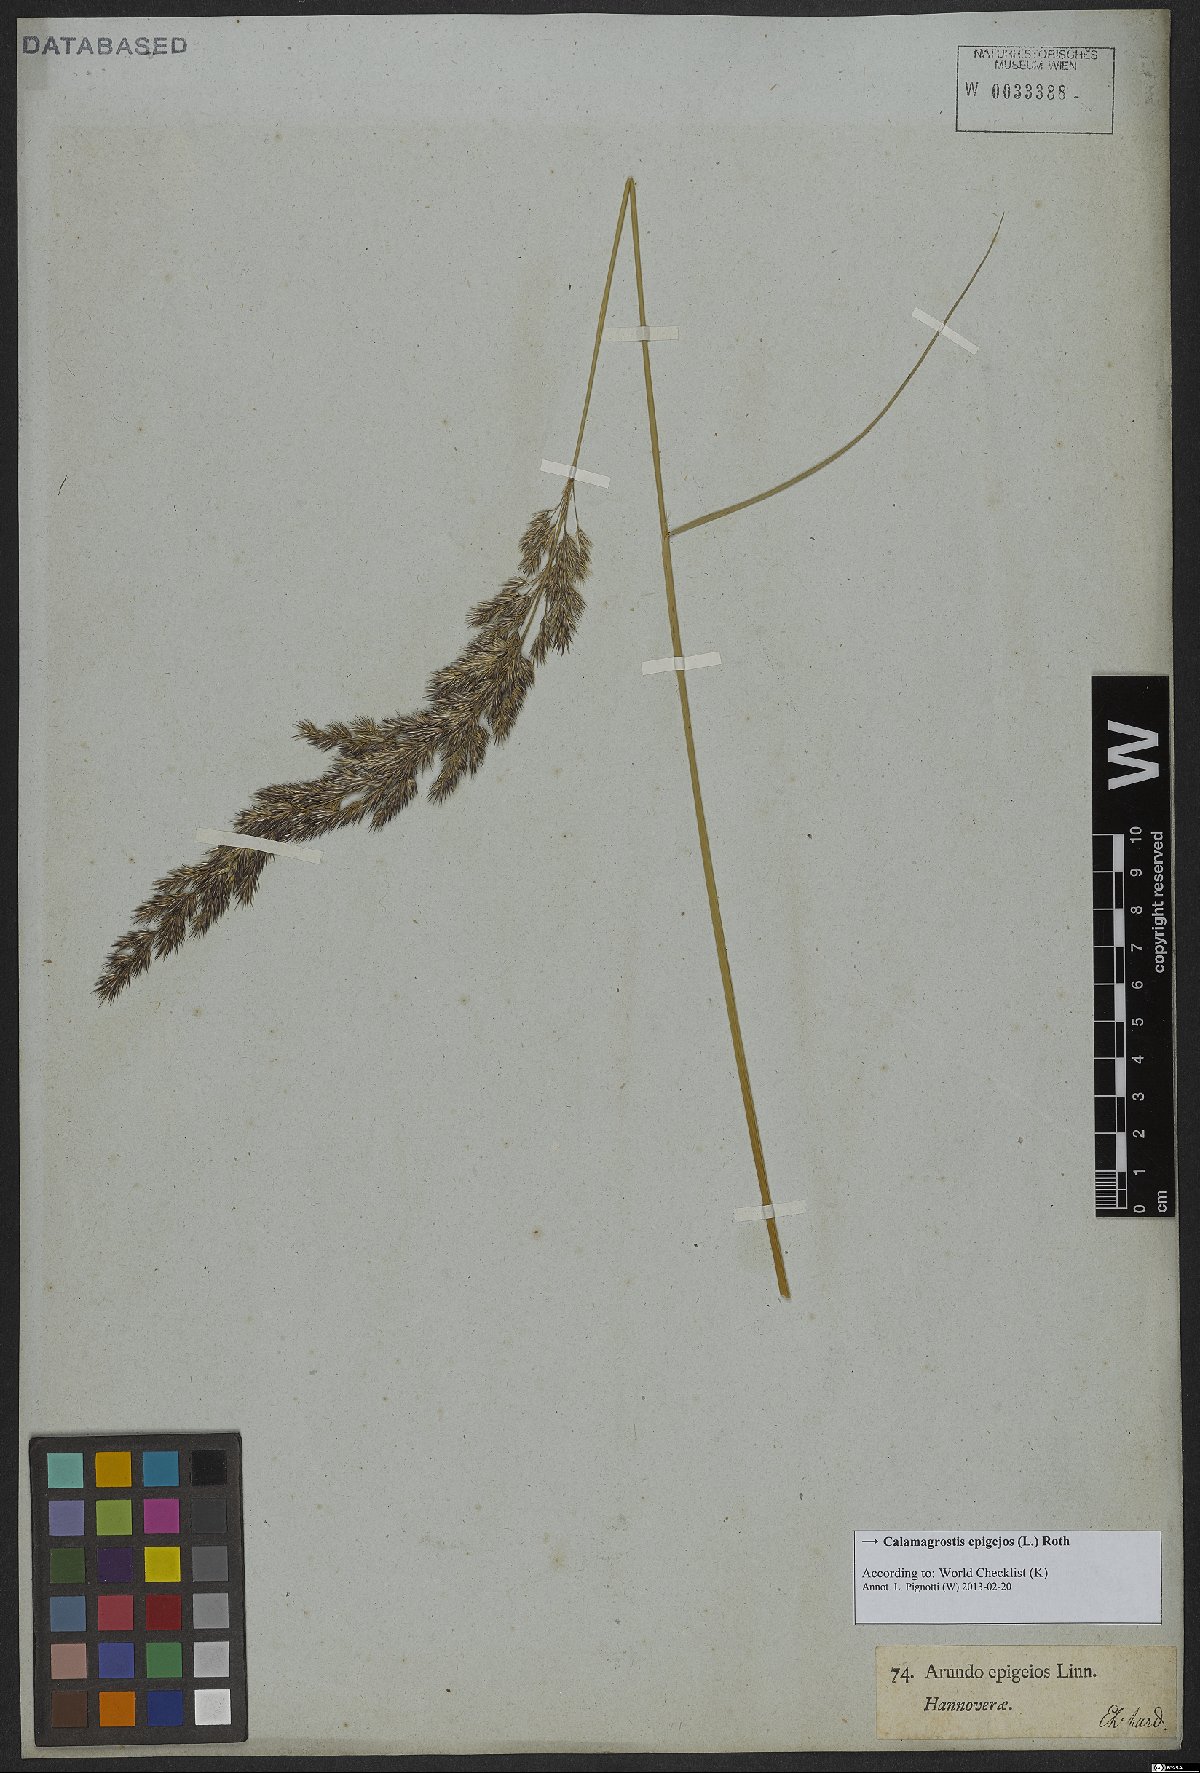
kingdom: Plantae
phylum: Tracheophyta
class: Liliopsida
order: Poales
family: Poaceae
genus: Calamagrostis
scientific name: Calamagrostis epigejos
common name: Wood small-reed
